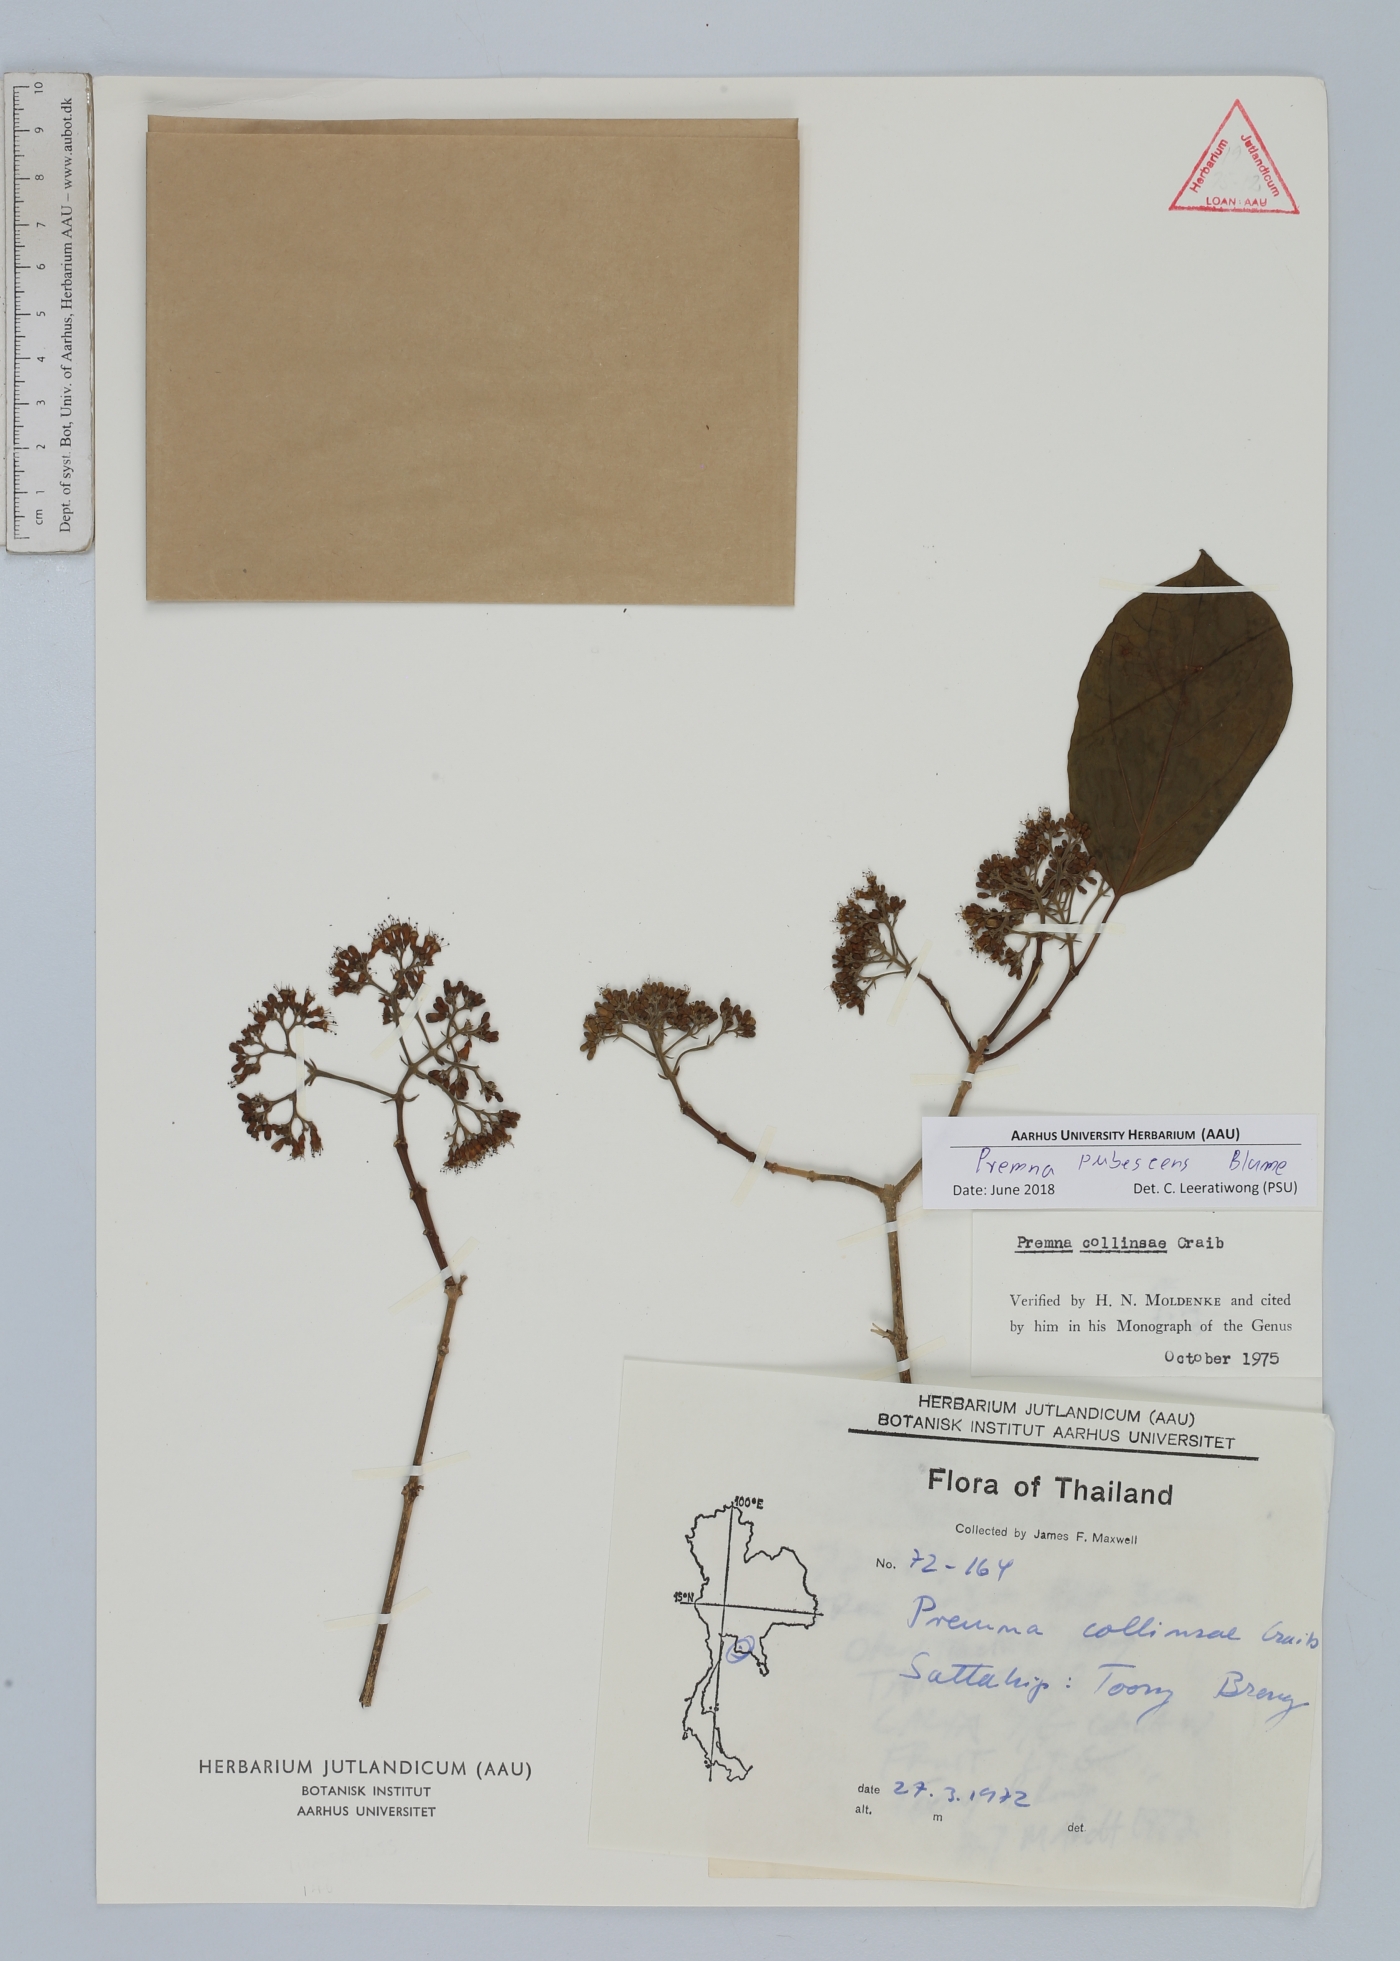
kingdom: Plantae
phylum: Tracheophyta
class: Magnoliopsida
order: Lamiales
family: Lamiaceae
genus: Premna
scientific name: Premna pubescens
